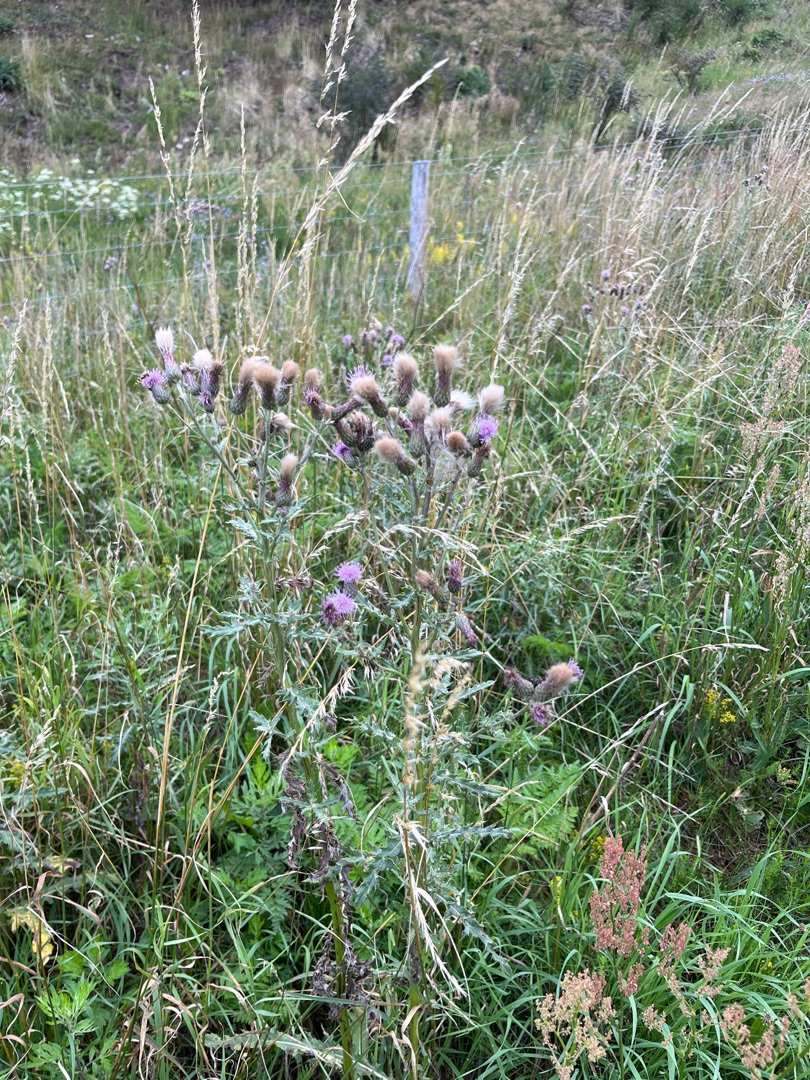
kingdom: Plantae
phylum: Tracheophyta
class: Magnoliopsida
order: Asterales
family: Asteraceae
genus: Cirsium
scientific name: Cirsium arvense
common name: Ager-tidsel
